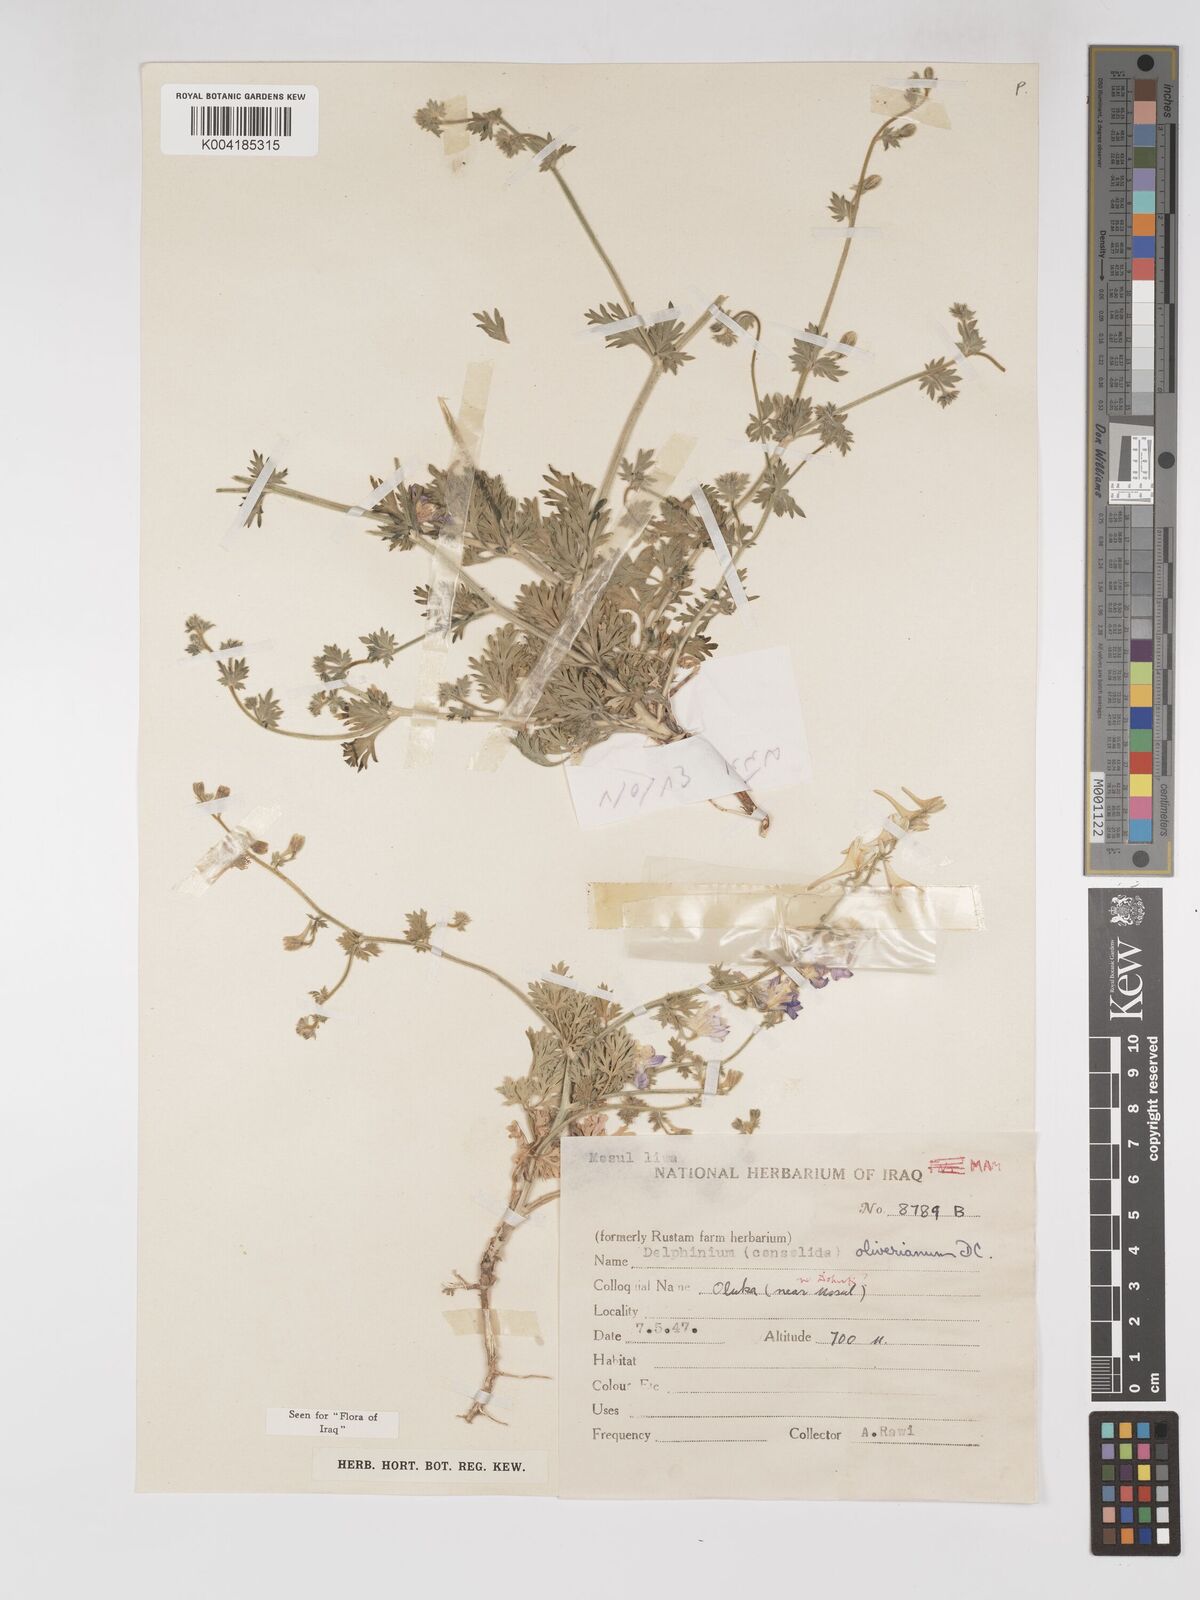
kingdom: Plantae
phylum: Tracheophyta
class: Magnoliopsida
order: Ranunculales
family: Ranunculaceae
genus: Delphinium
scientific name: Delphinium oliverianum
